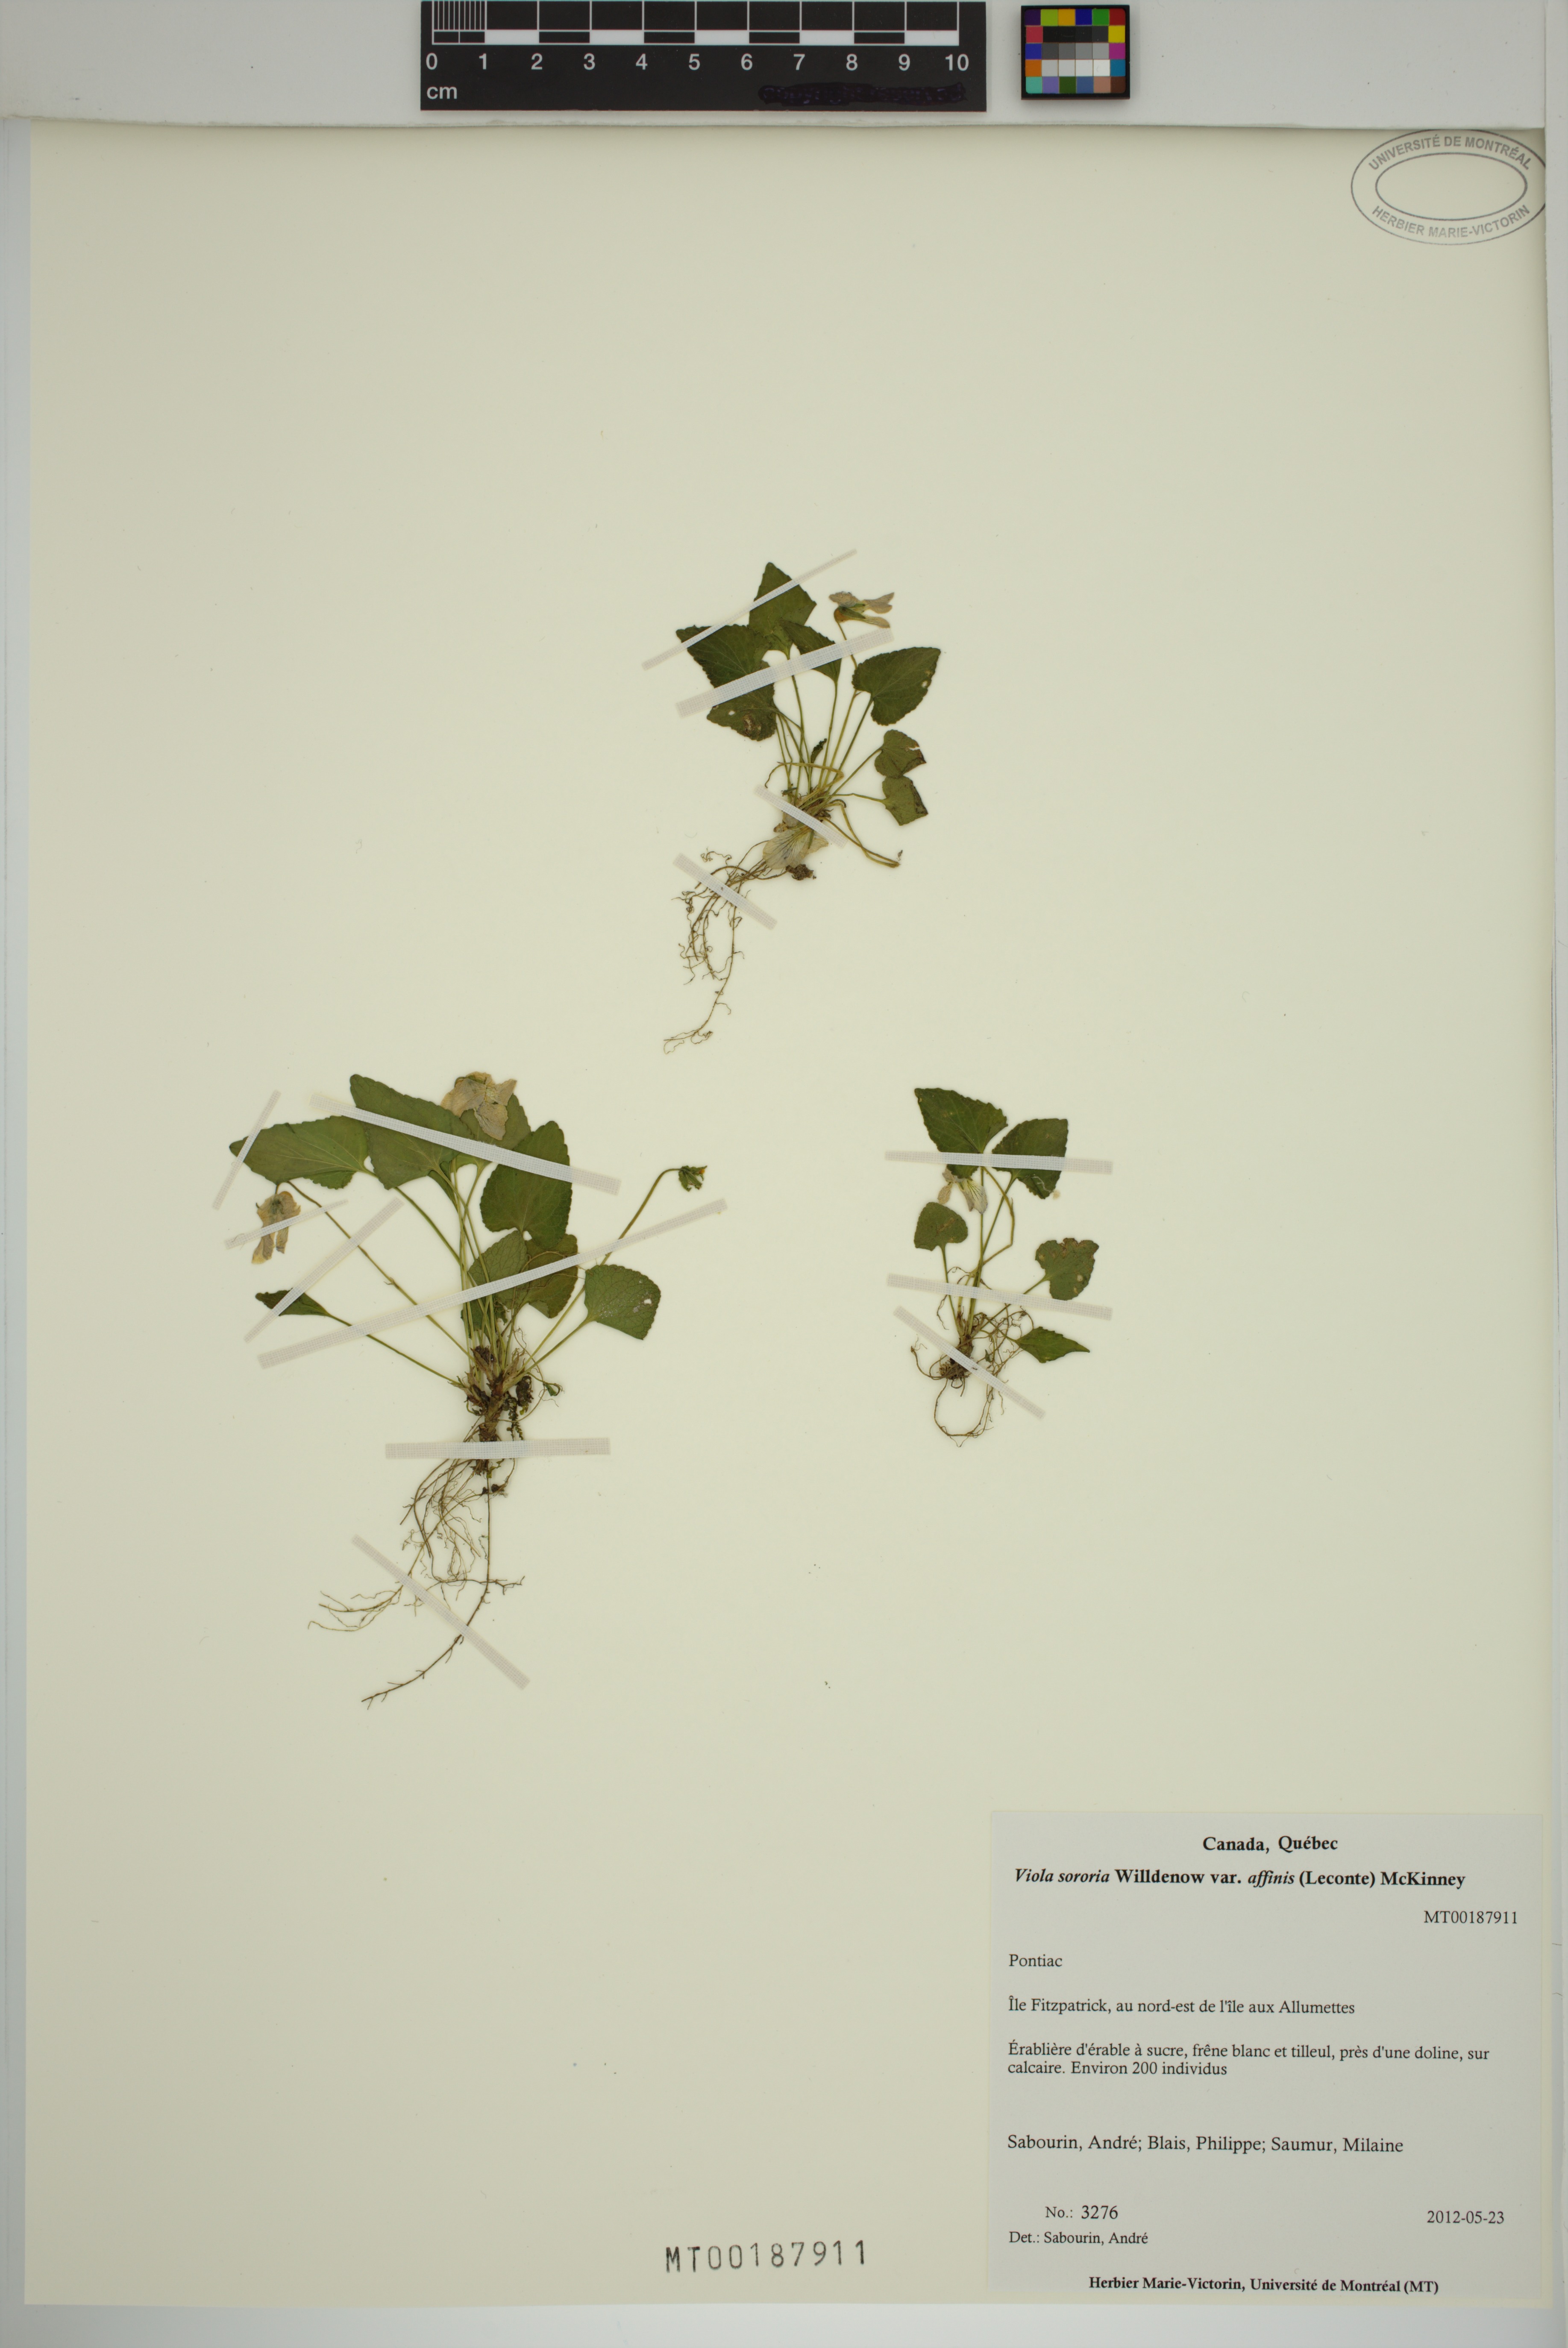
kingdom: Plantae
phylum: Tracheophyta
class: Magnoliopsida
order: Malpighiales
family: Violaceae
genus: Viola
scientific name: Viola affinis
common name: Leconte's violet
